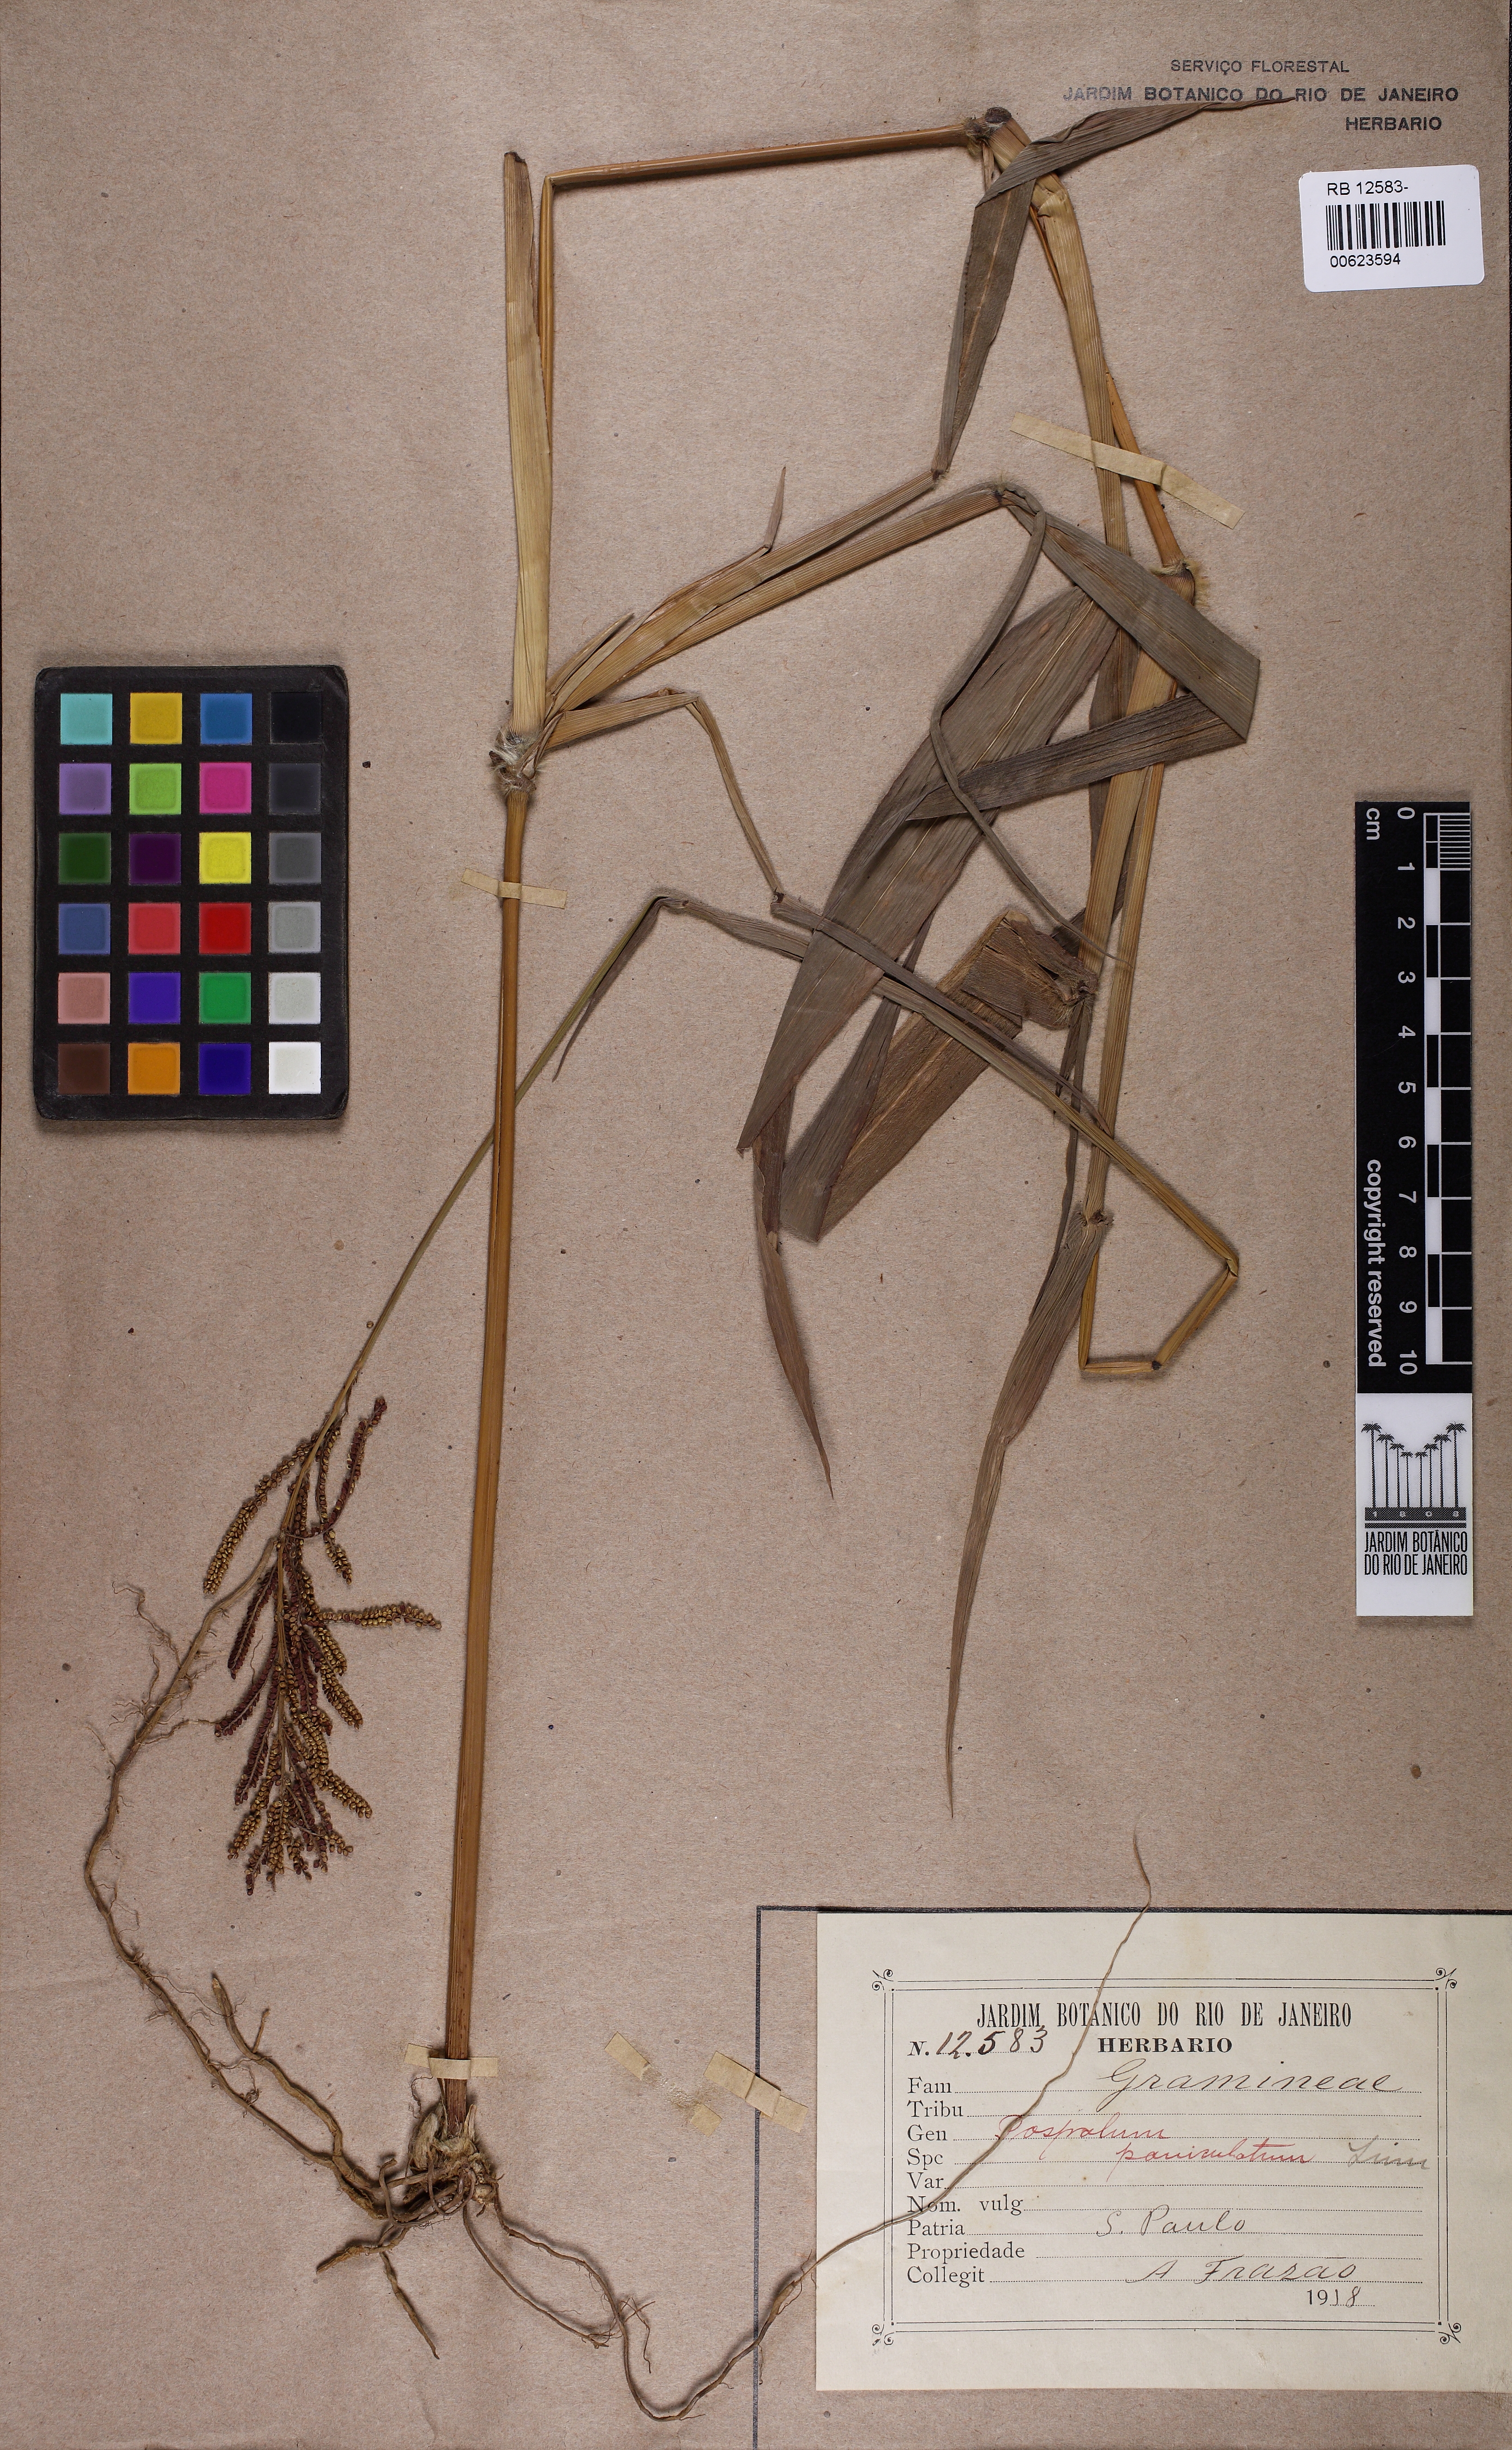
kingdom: Plantae
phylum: Tracheophyta
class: Liliopsida
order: Poales
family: Poaceae
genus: Paspalum
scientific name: Paspalum paniculatum
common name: Arrocillo
